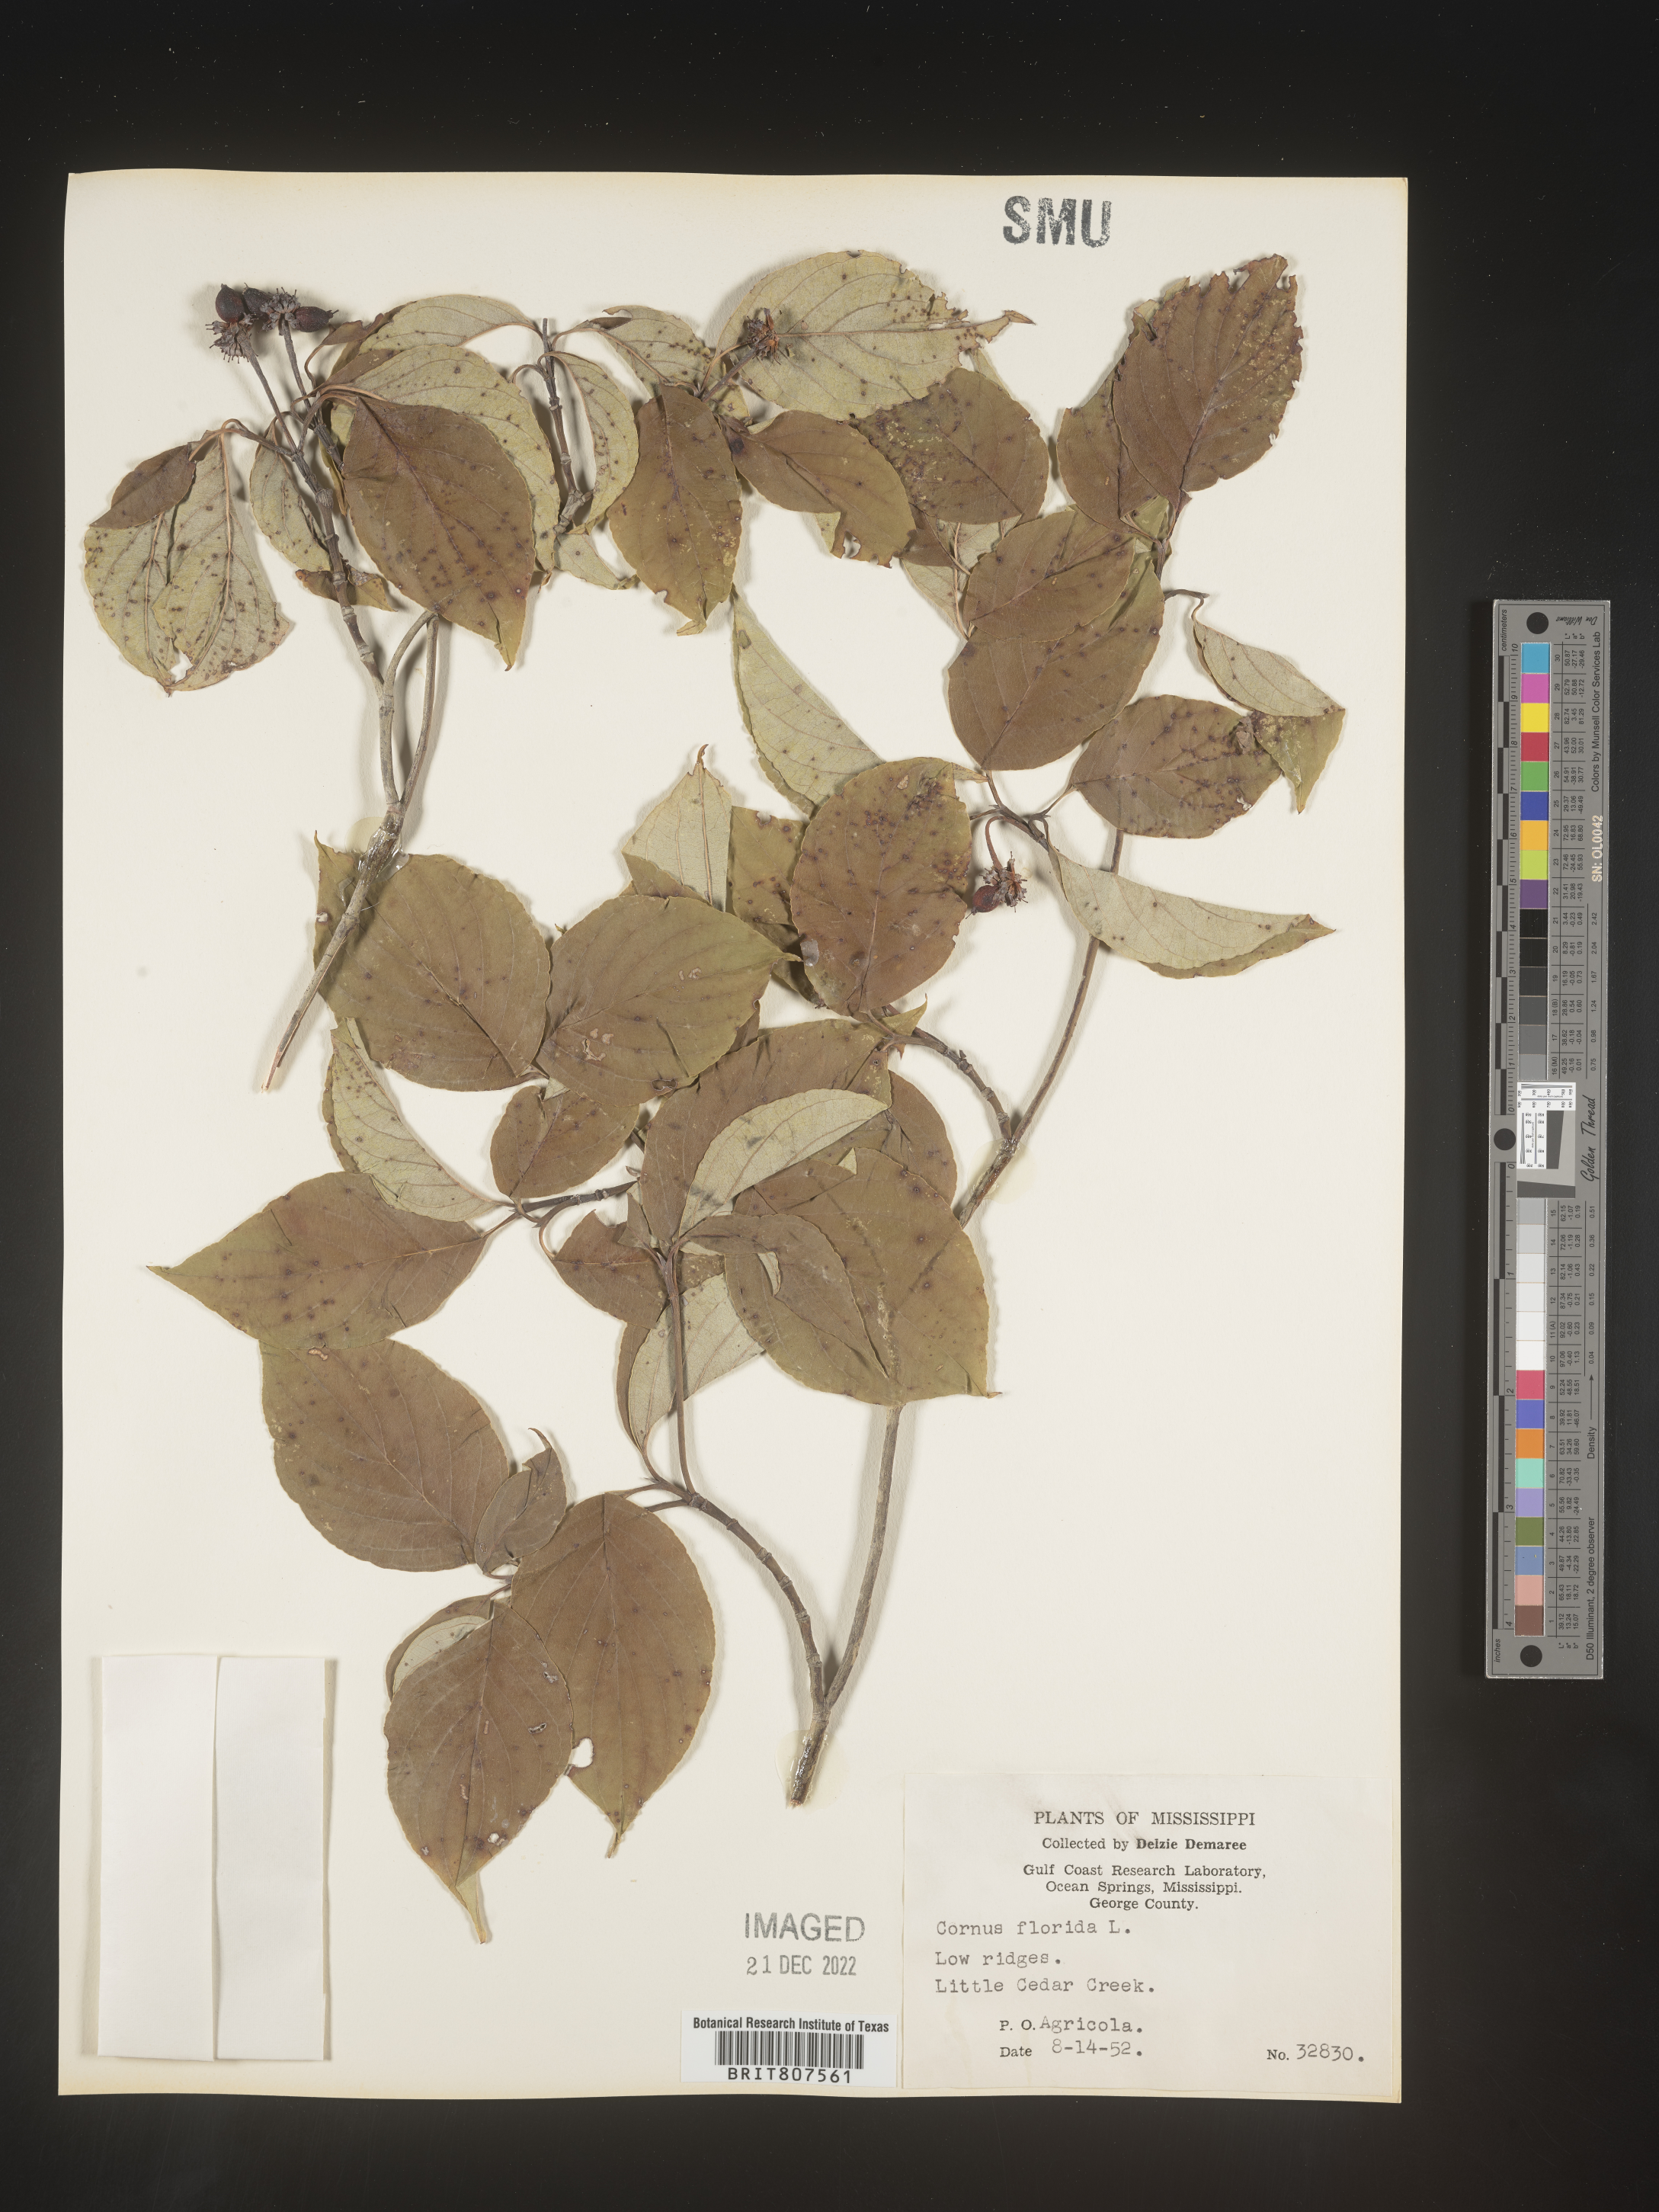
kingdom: Plantae
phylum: Tracheophyta
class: Magnoliopsida
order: Cornales
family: Cornaceae
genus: Cornus
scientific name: Cornus florida
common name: Flowering dogwood
